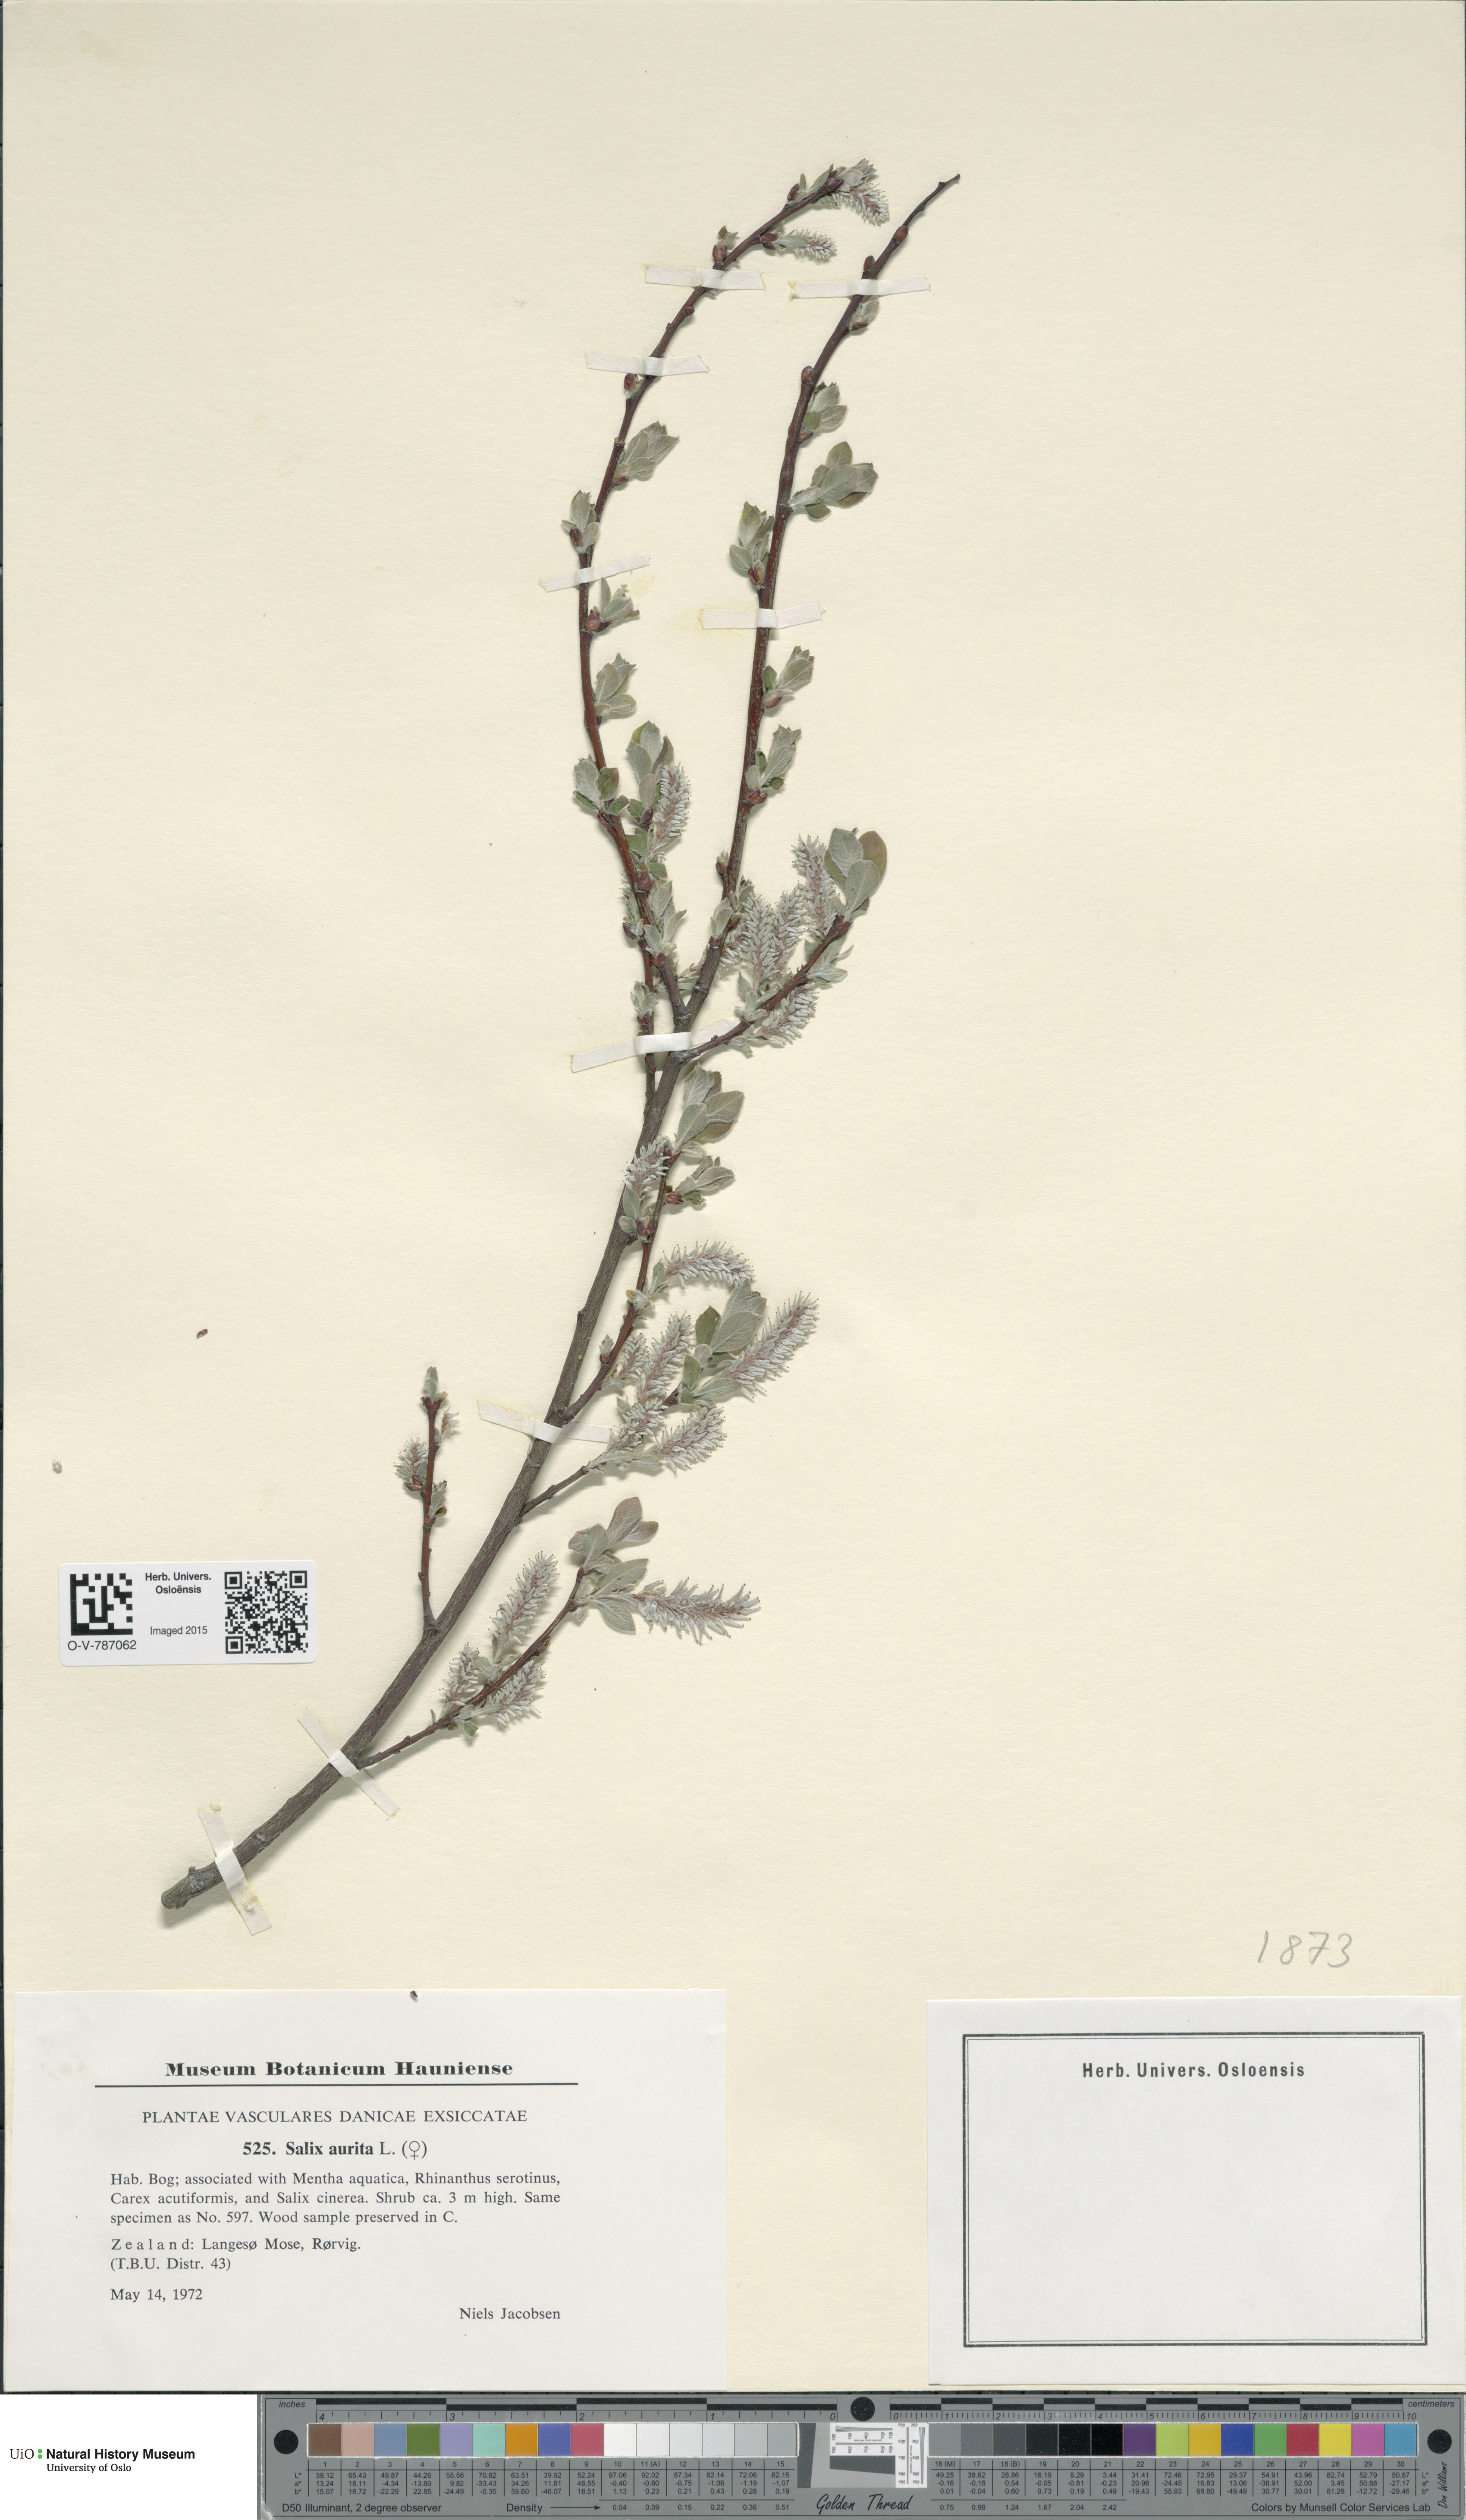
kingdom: Plantae
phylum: Tracheophyta
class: Magnoliopsida
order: Malpighiales
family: Salicaceae
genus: Salix
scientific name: Salix aurita
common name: Eared willow
